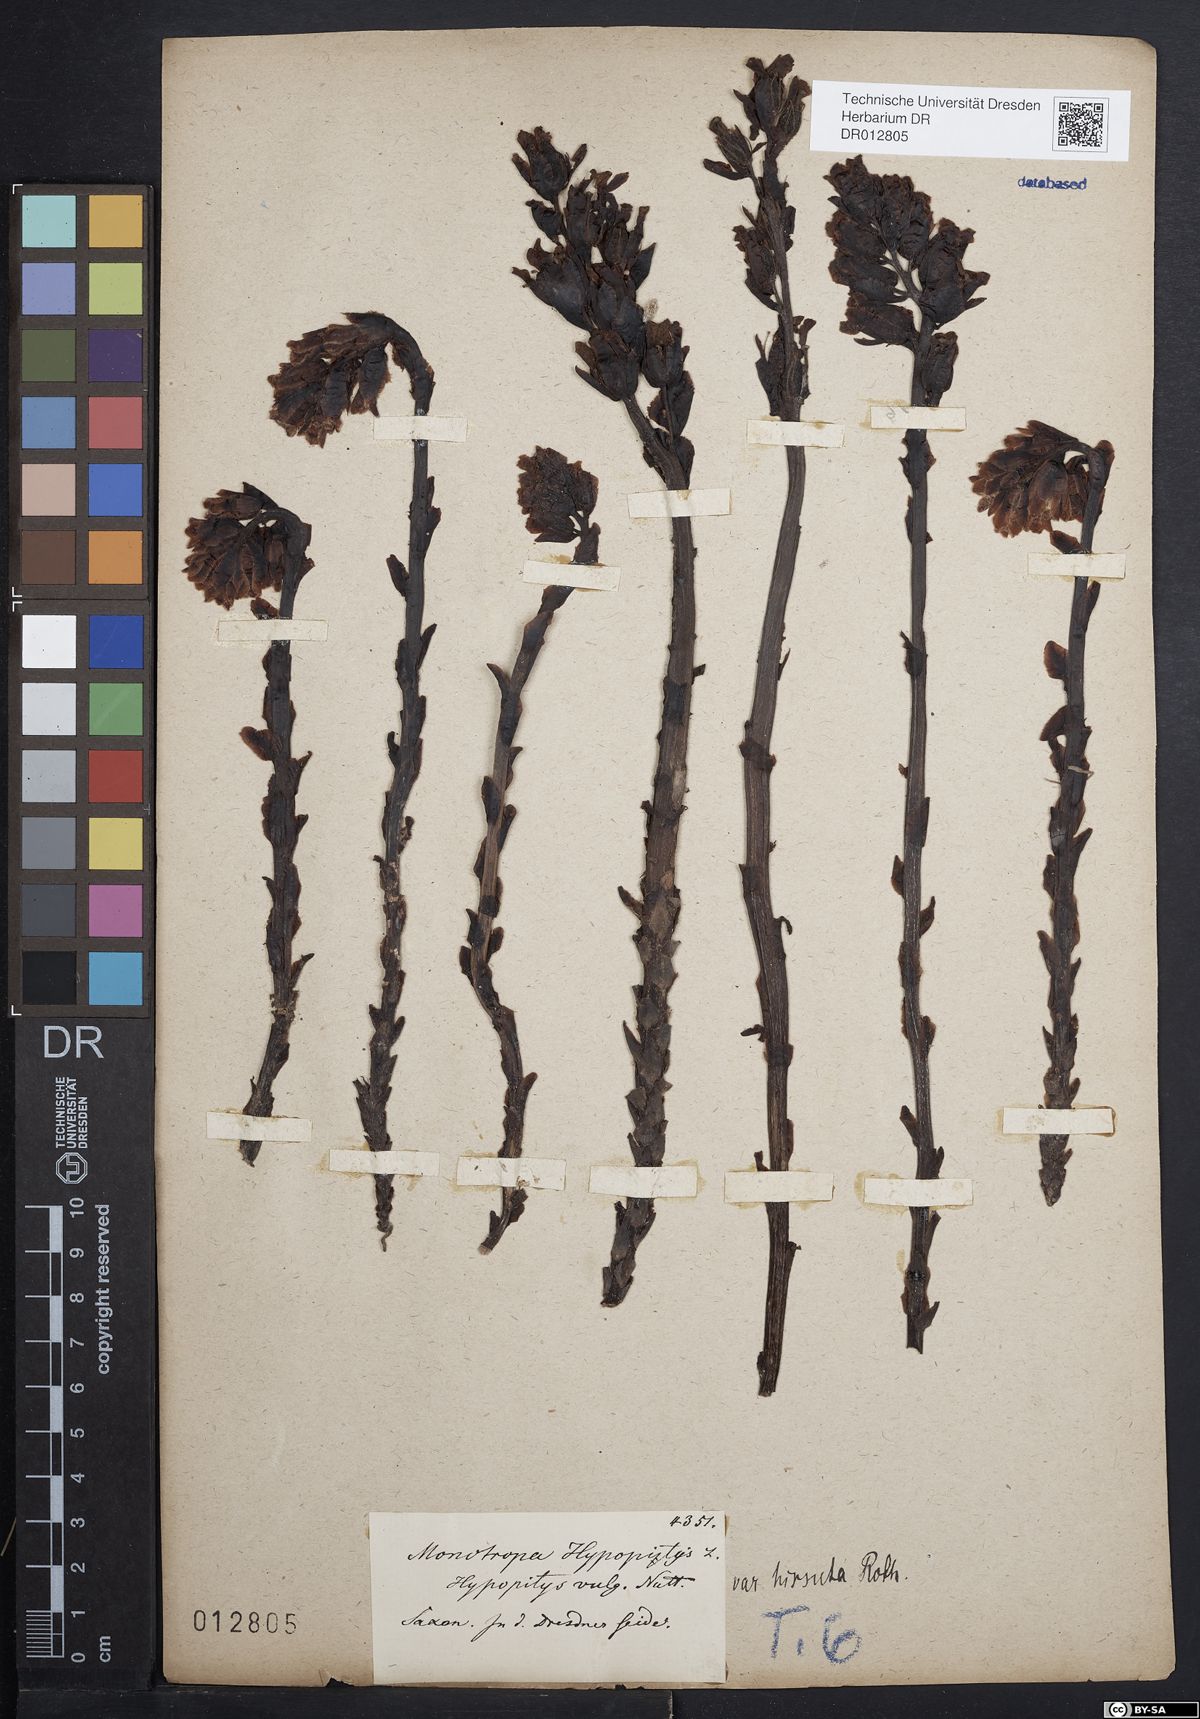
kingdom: Plantae
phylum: Tracheophyta
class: Magnoliopsida
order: Ericales
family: Ericaceae
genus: Hypopitys
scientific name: Hypopitys monotropa
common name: Yellow bird's-nest
